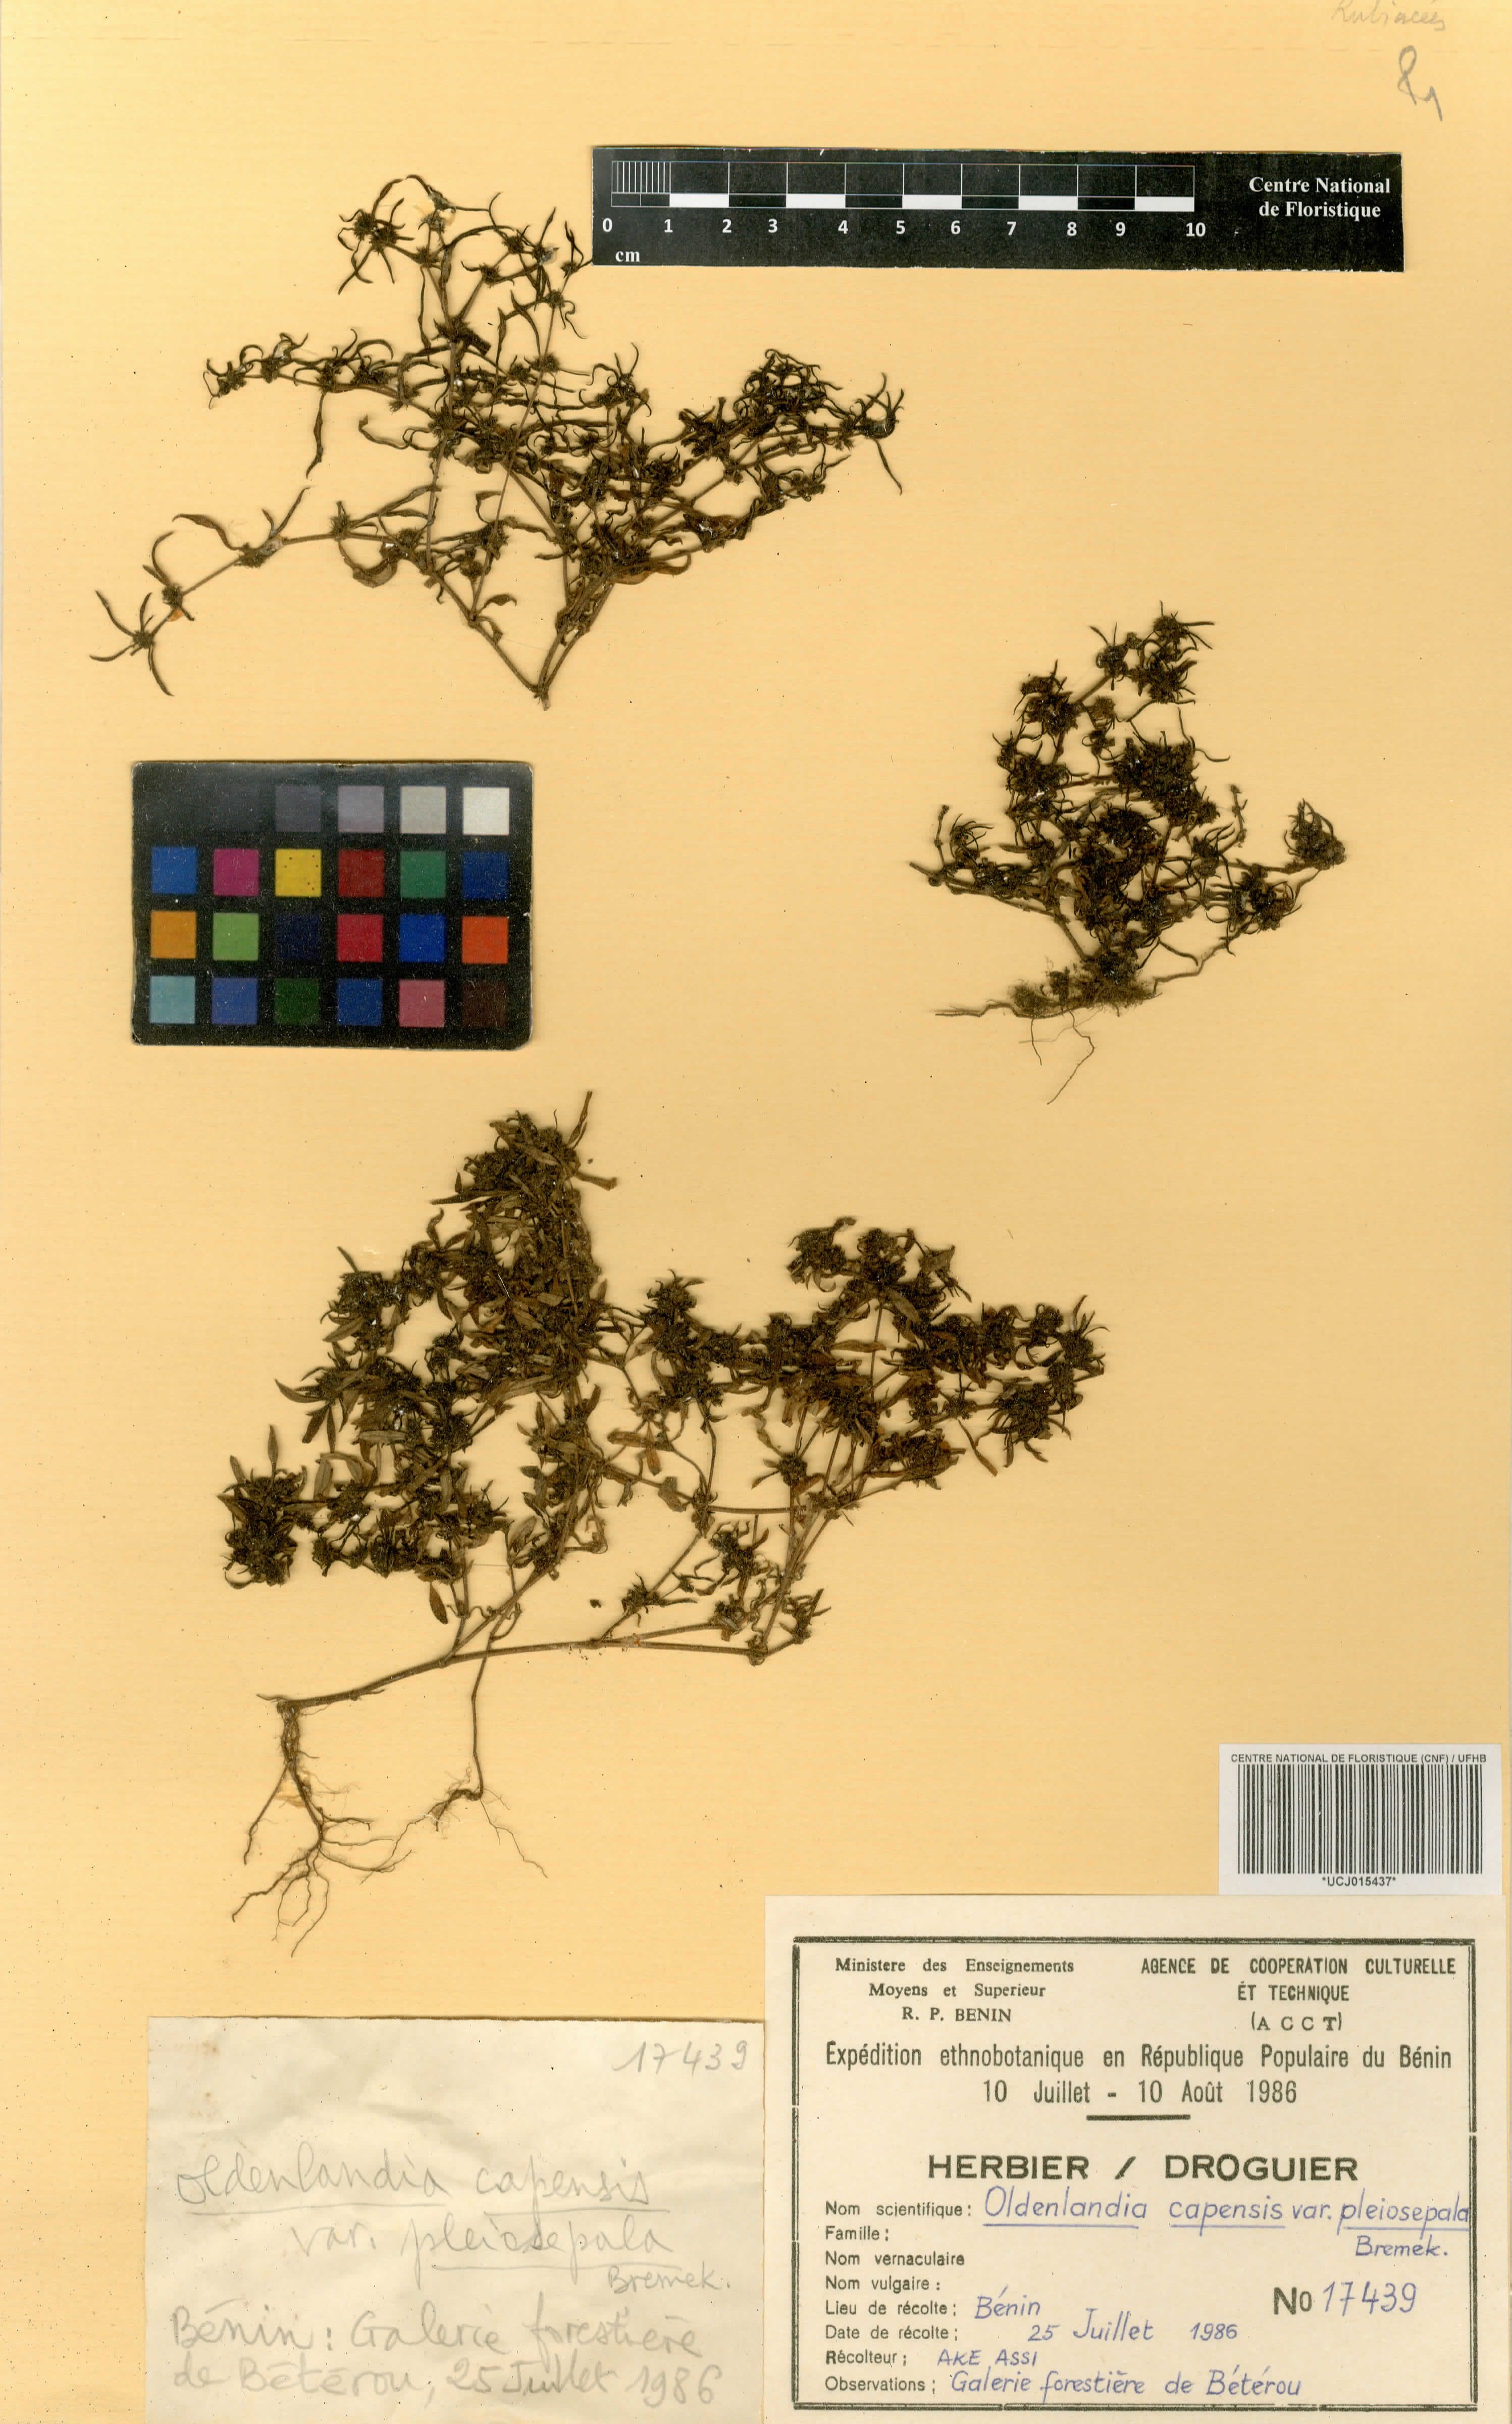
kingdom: Plantae
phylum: Tracheophyta
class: Magnoliopsida
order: Gentianales
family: Rubiaceae
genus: Oldenlandia
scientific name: Oldenlandia capensis
